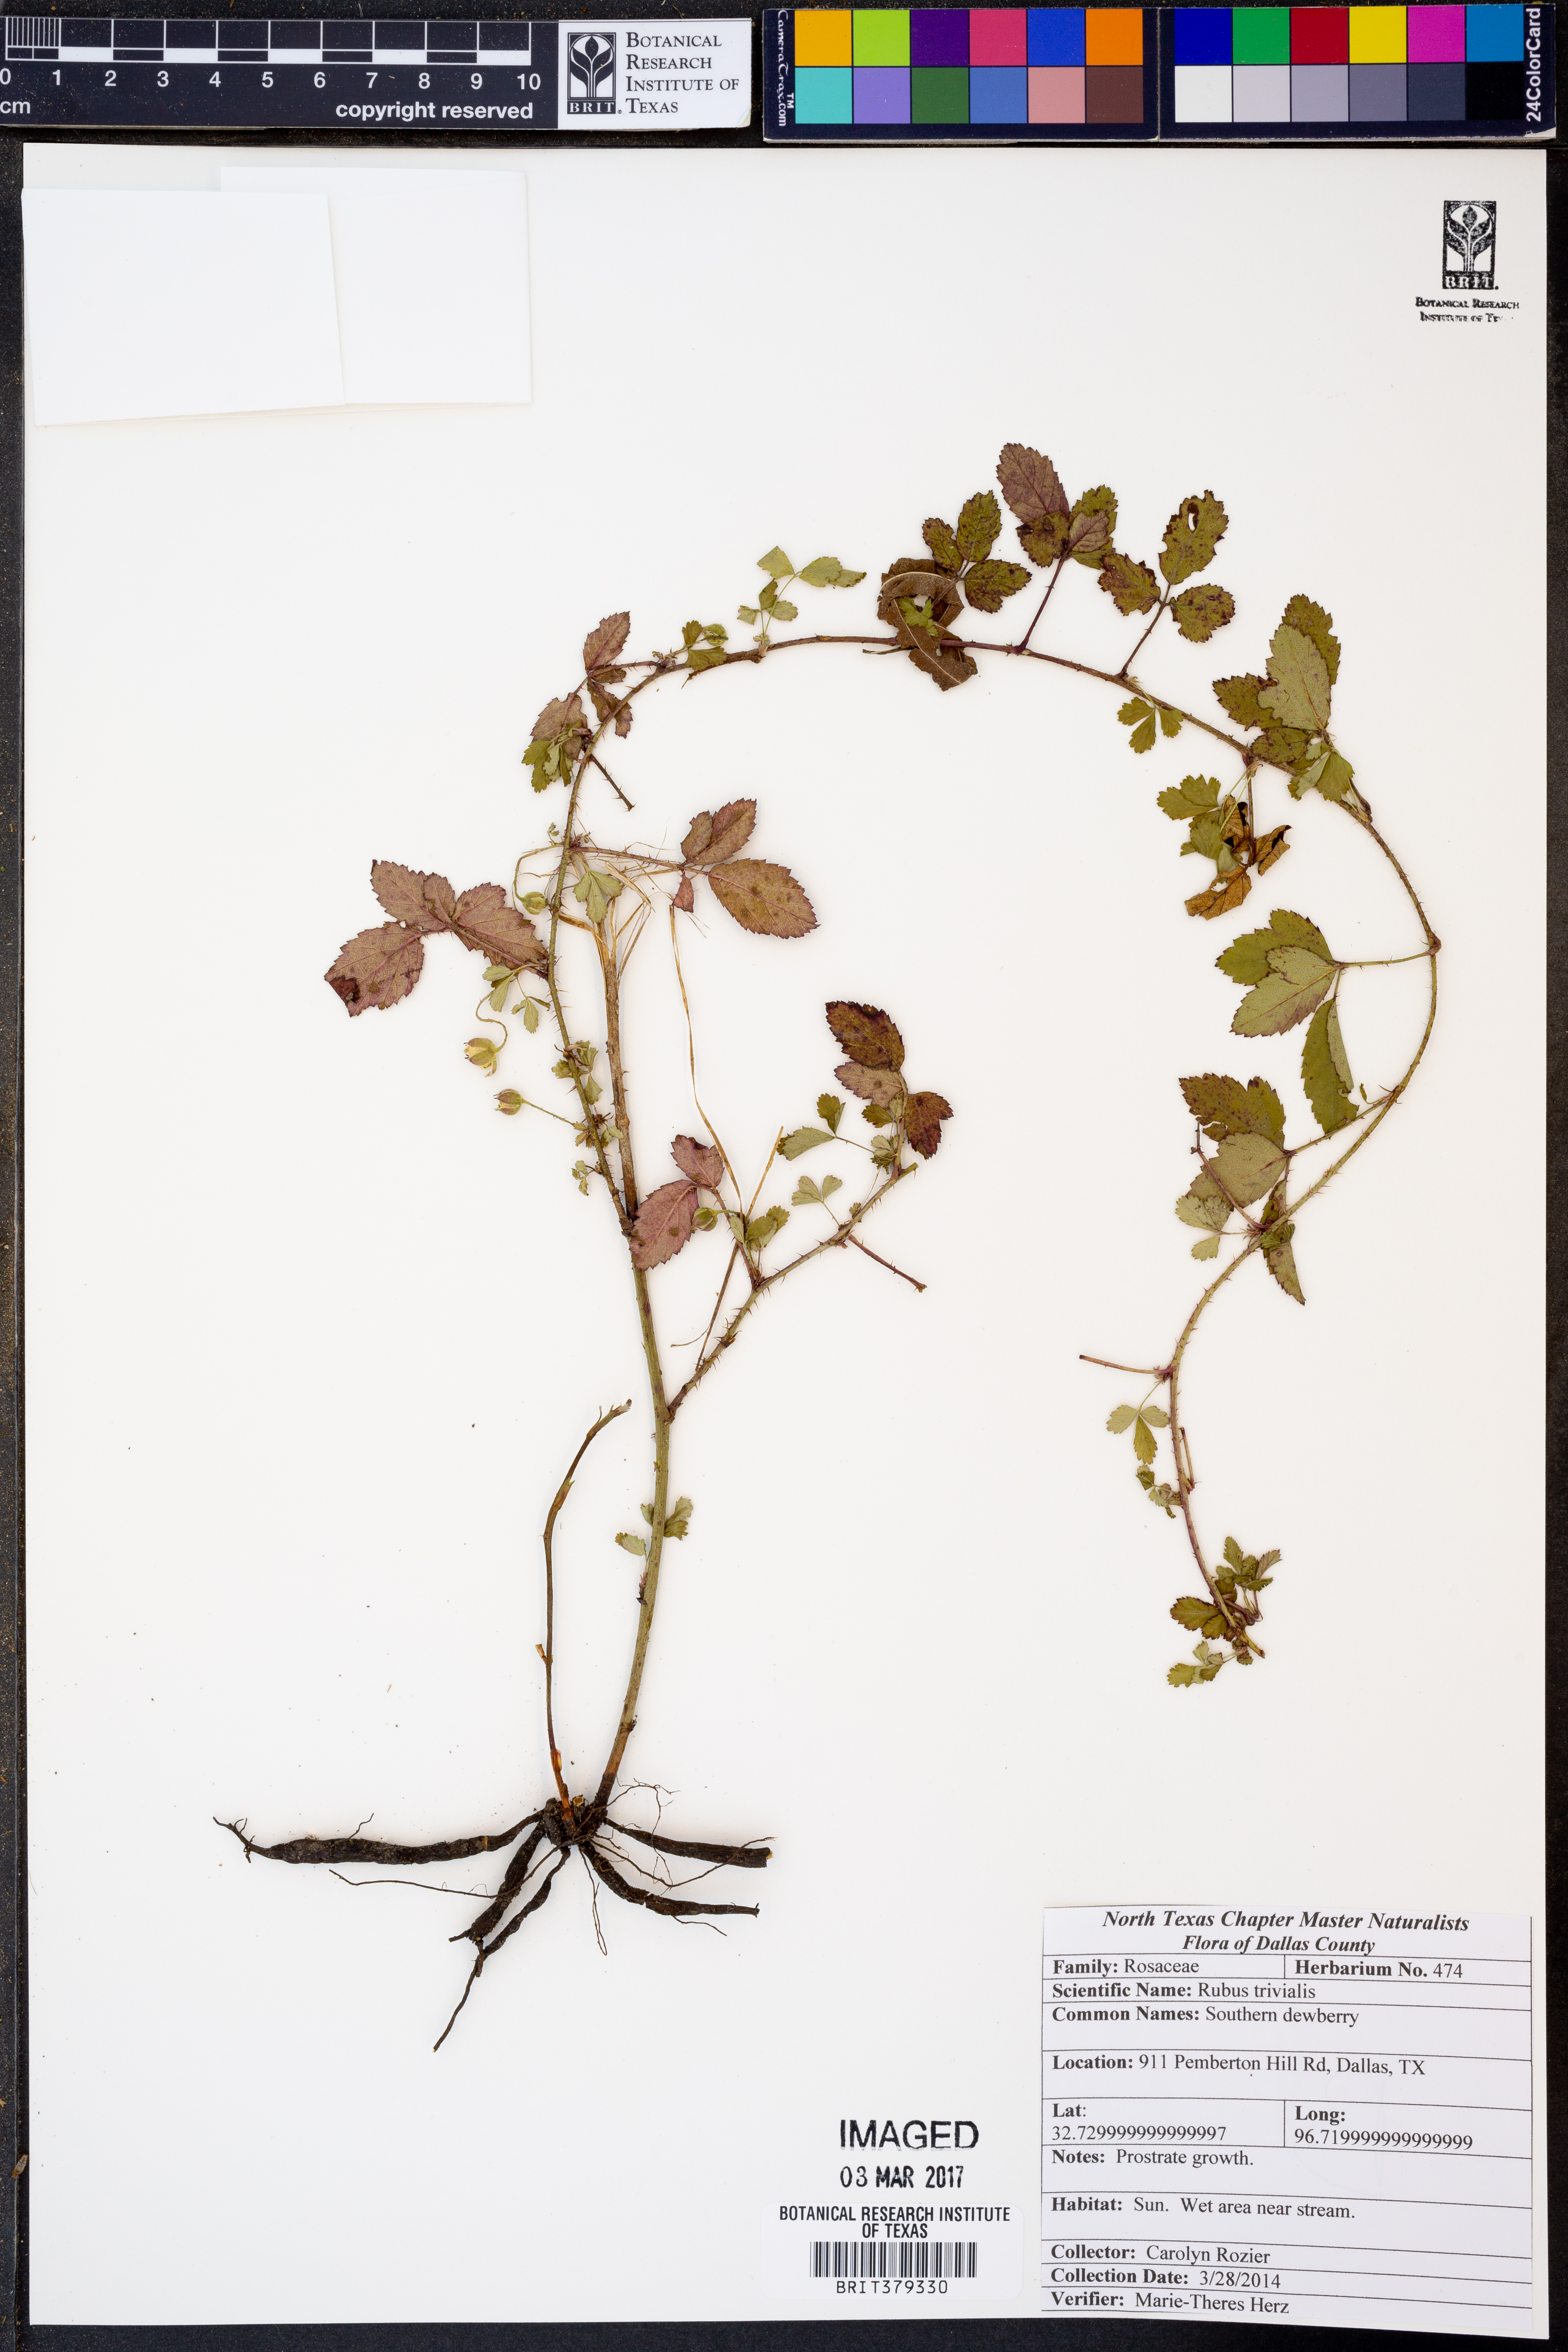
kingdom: Plantae
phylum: Tracheophyta
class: Magnoliopsida
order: Rosales
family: Rosaceae
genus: Rubus
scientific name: Rubus trivialis
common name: Southern dewberry
